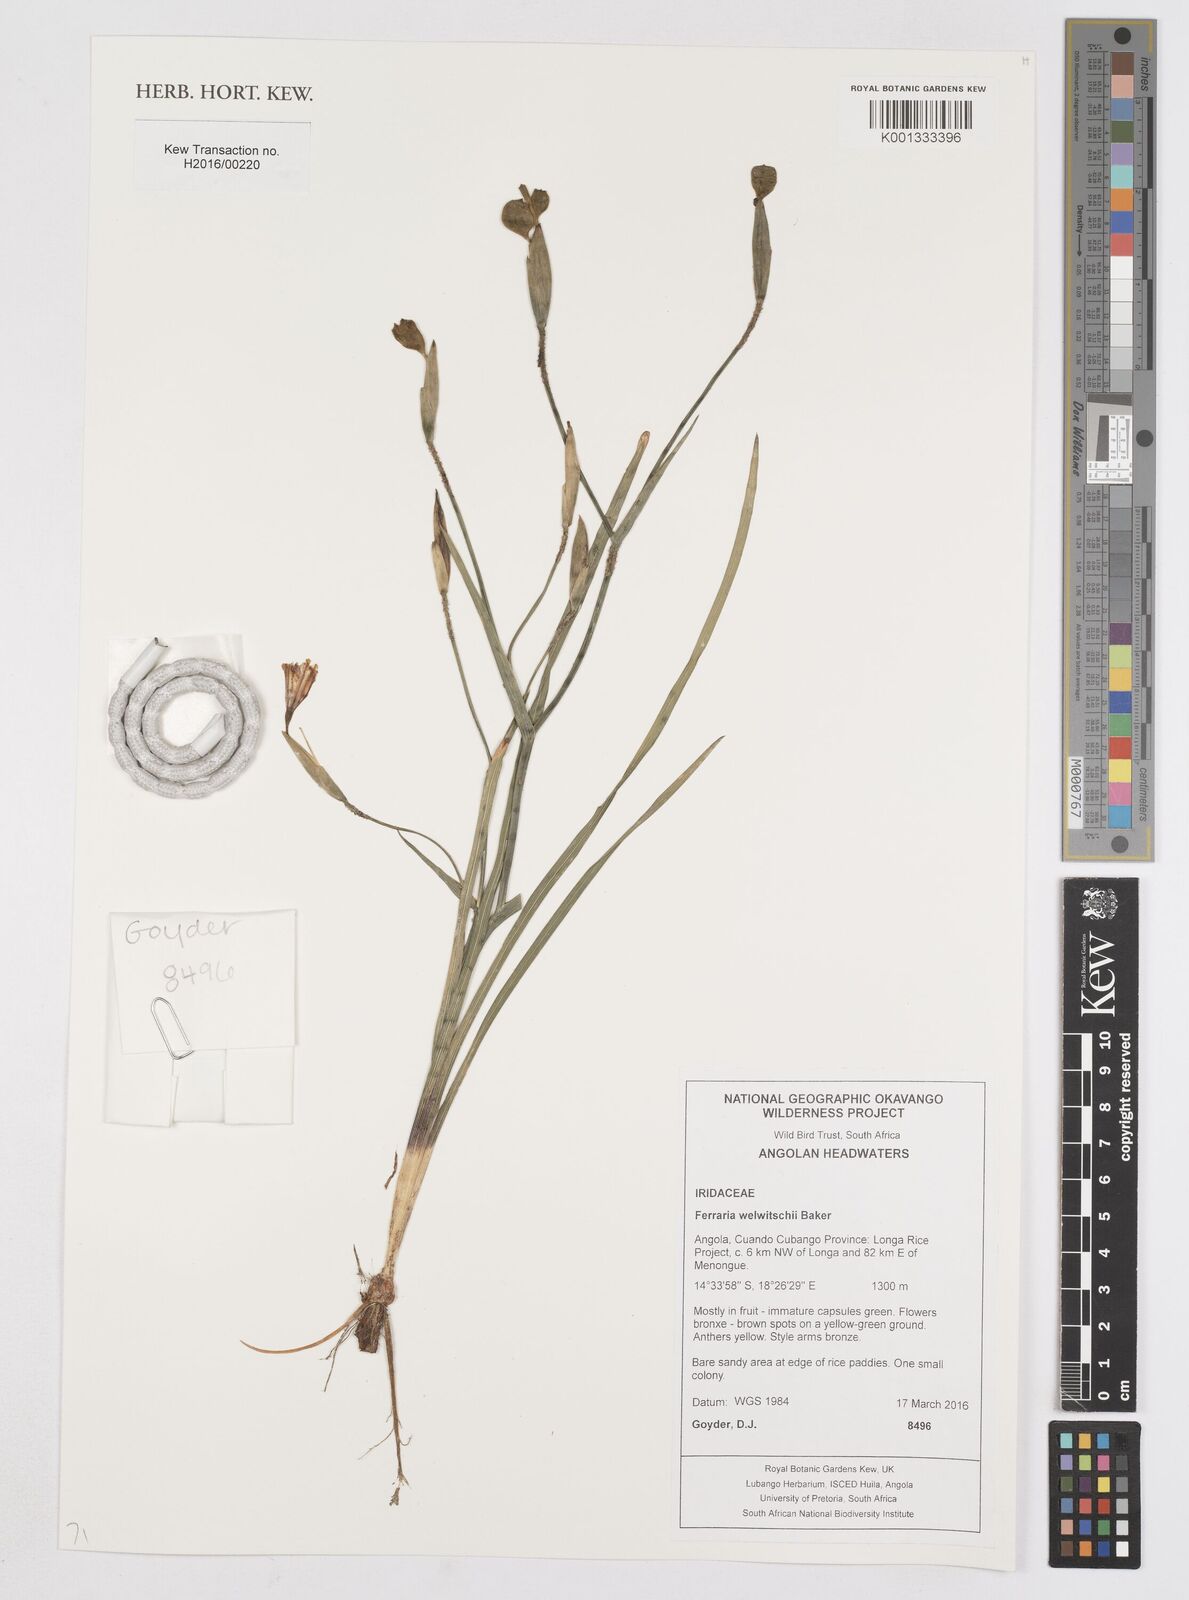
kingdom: Plantae
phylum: Tracheophyta
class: Liliopsida
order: Asparagales
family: Iridaceae
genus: Ferraria
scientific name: Ferraria welwitschii
